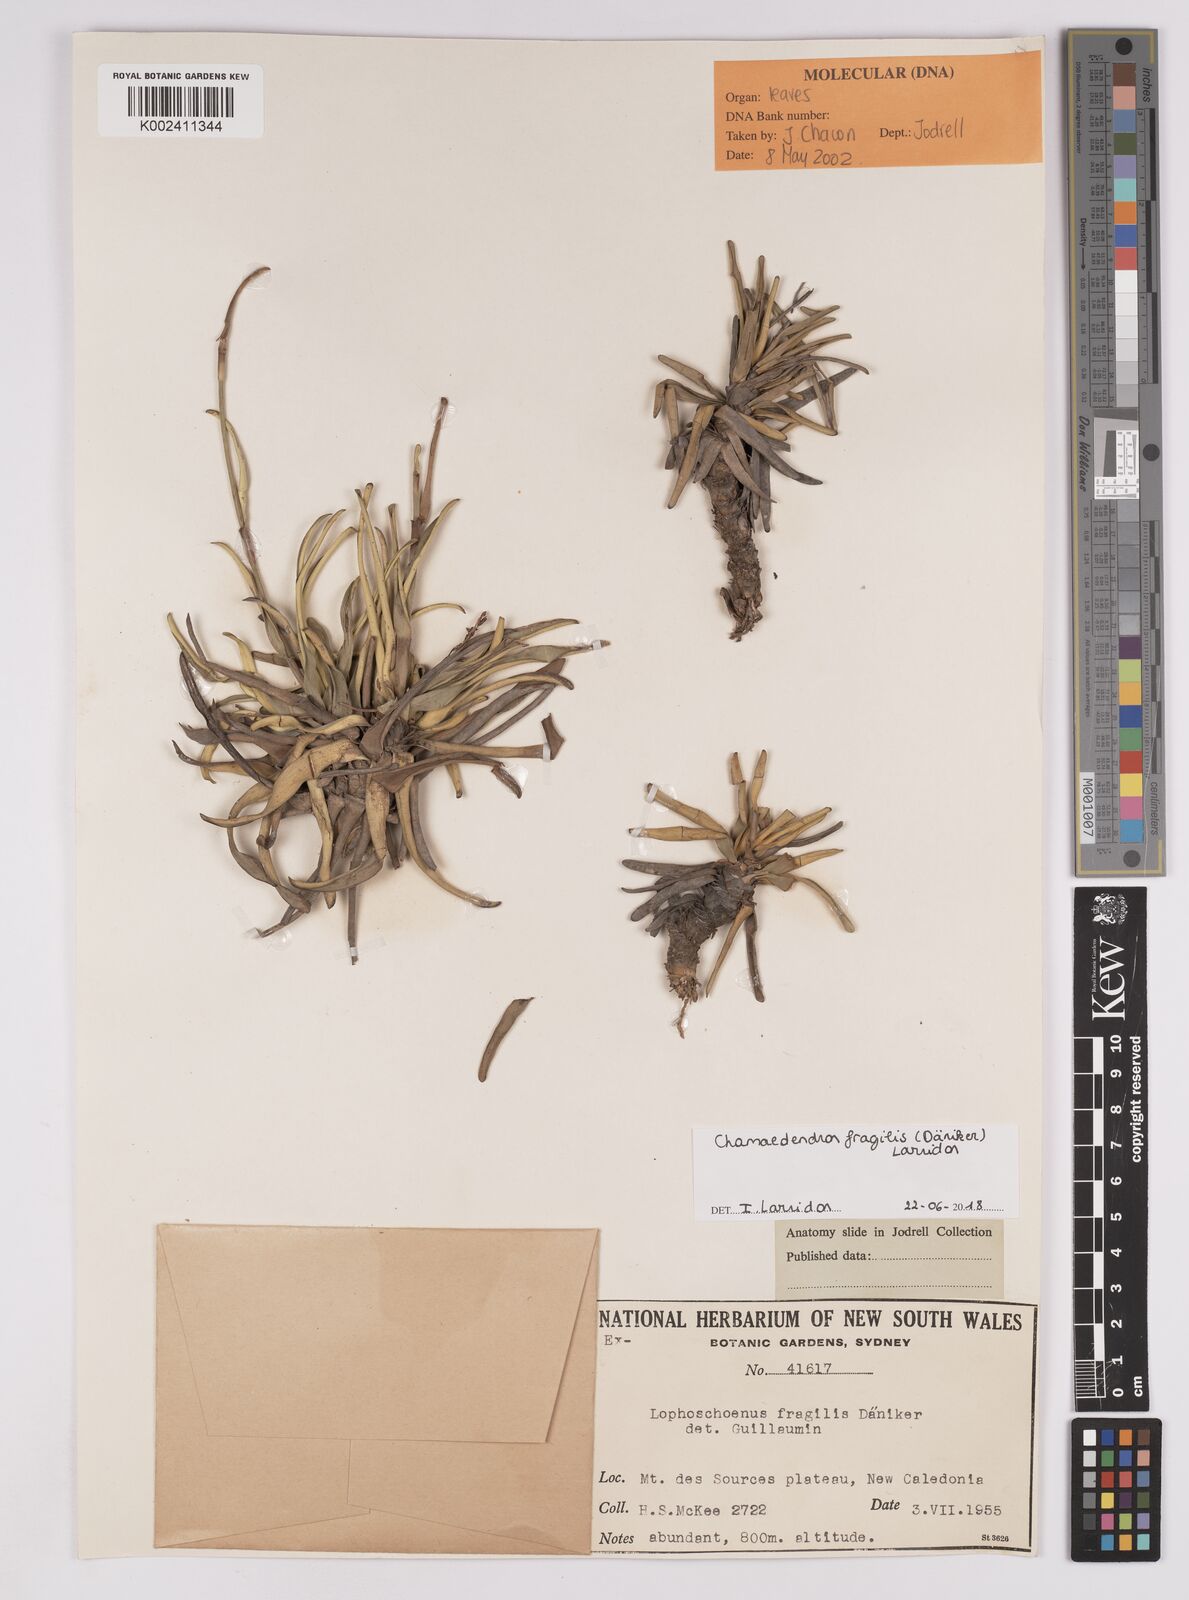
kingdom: Plantae
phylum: Tracheophyta
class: Liliopsida
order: Poales
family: Cyperaceae
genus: Chamaedendron
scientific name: Chamaedendron fragilis
